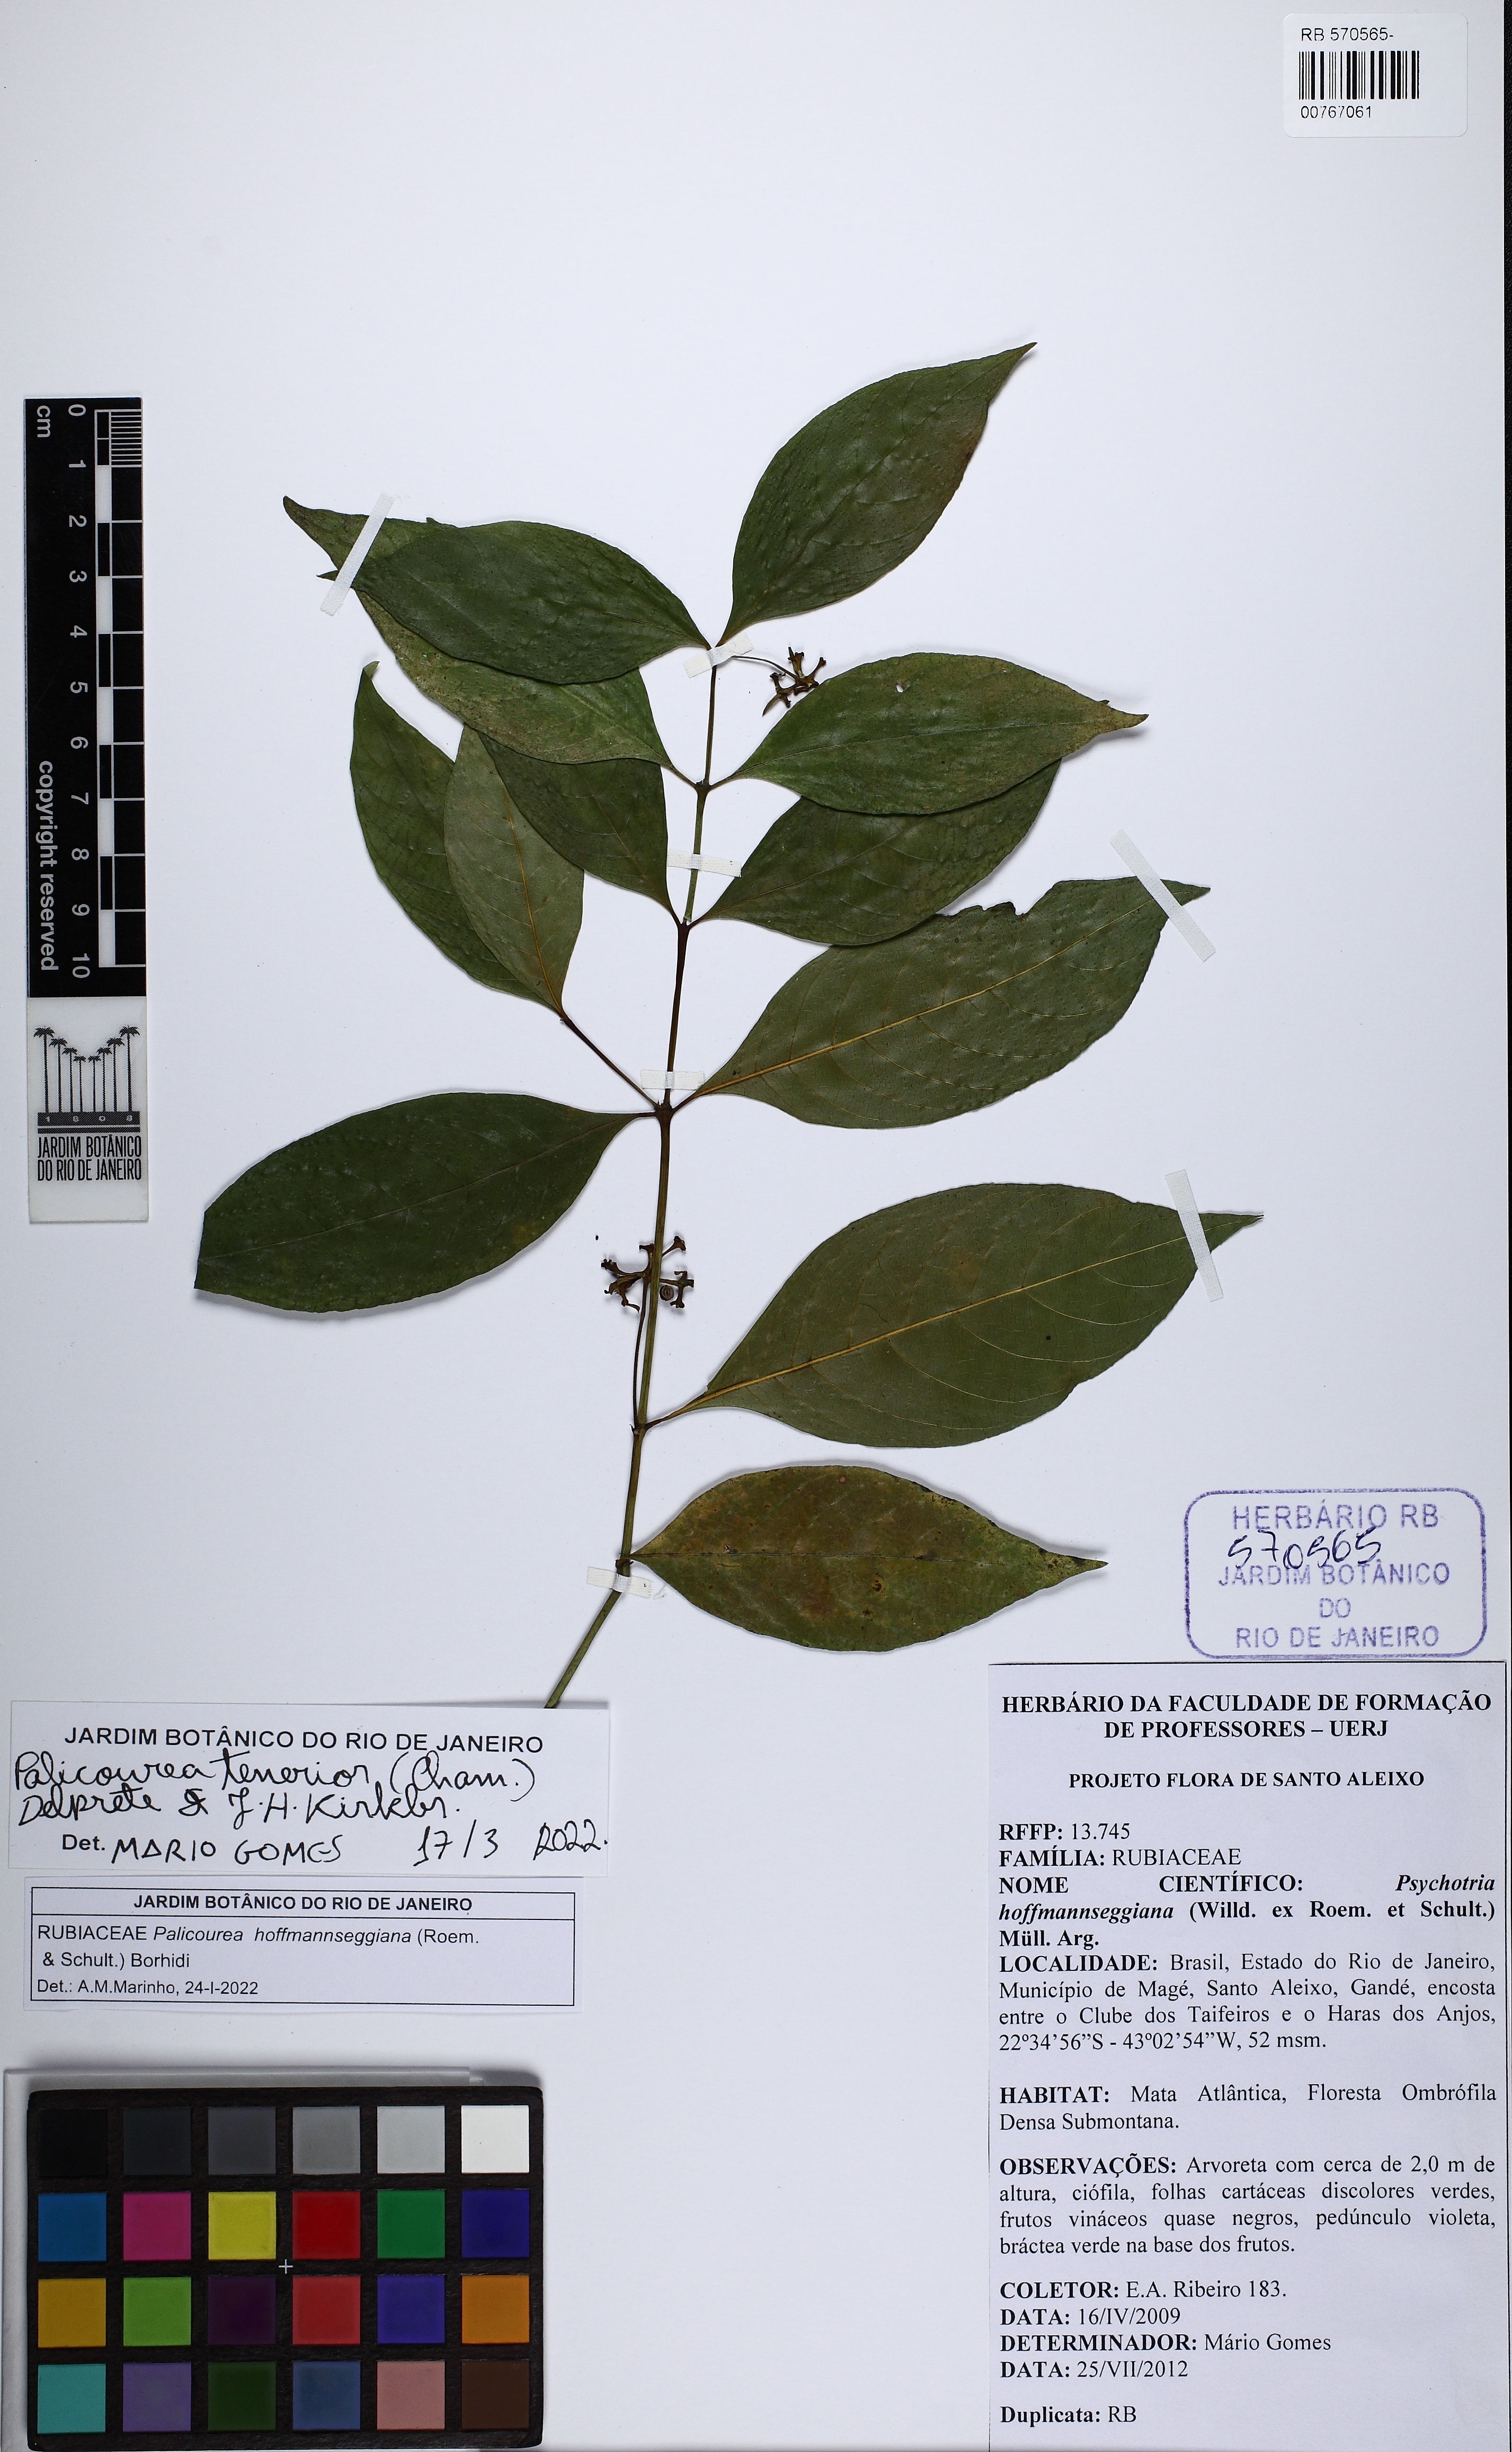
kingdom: Plantae
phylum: Tracheophyta
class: Magnoliopsida
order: Gentianales
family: Rubiaceae
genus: Palicourea
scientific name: Palicourea tenerior
